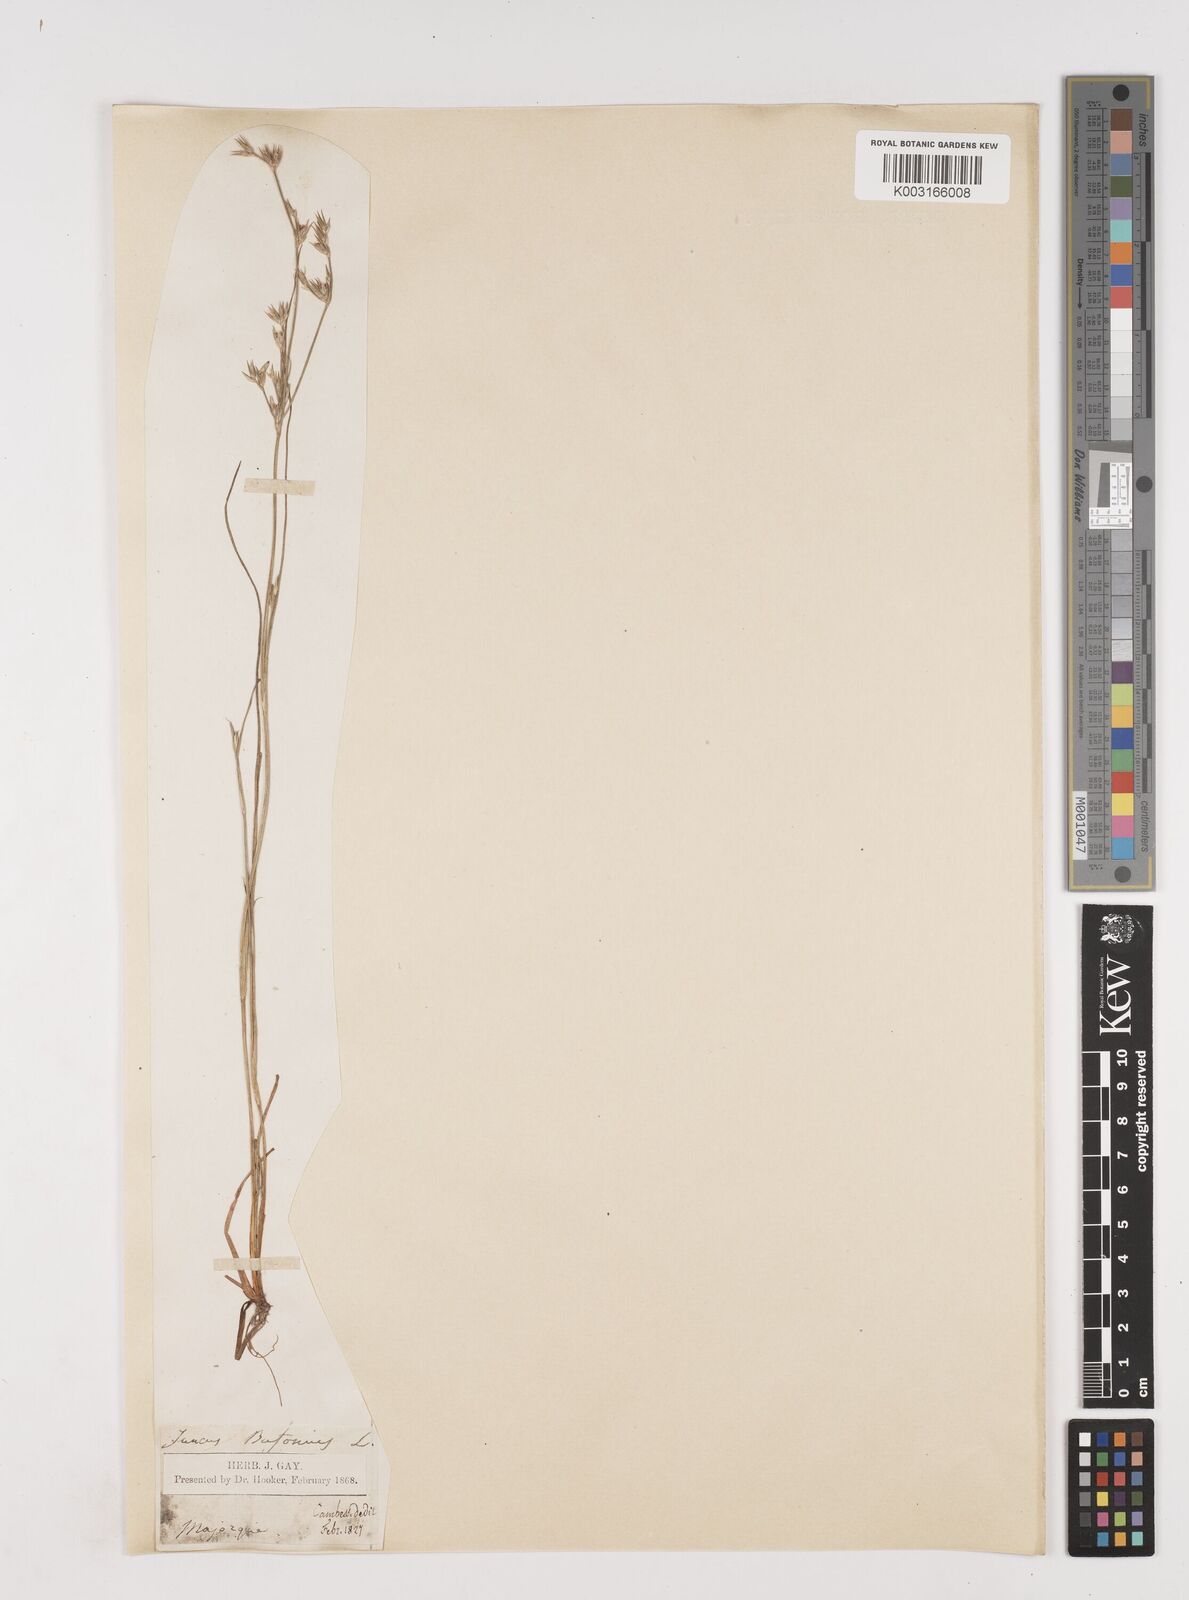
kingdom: Plantae
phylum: Tracheophyta
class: Liliopsida
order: Poales
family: Juncaceae
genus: Juncus
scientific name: Juncus bufonius
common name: Toad rush
